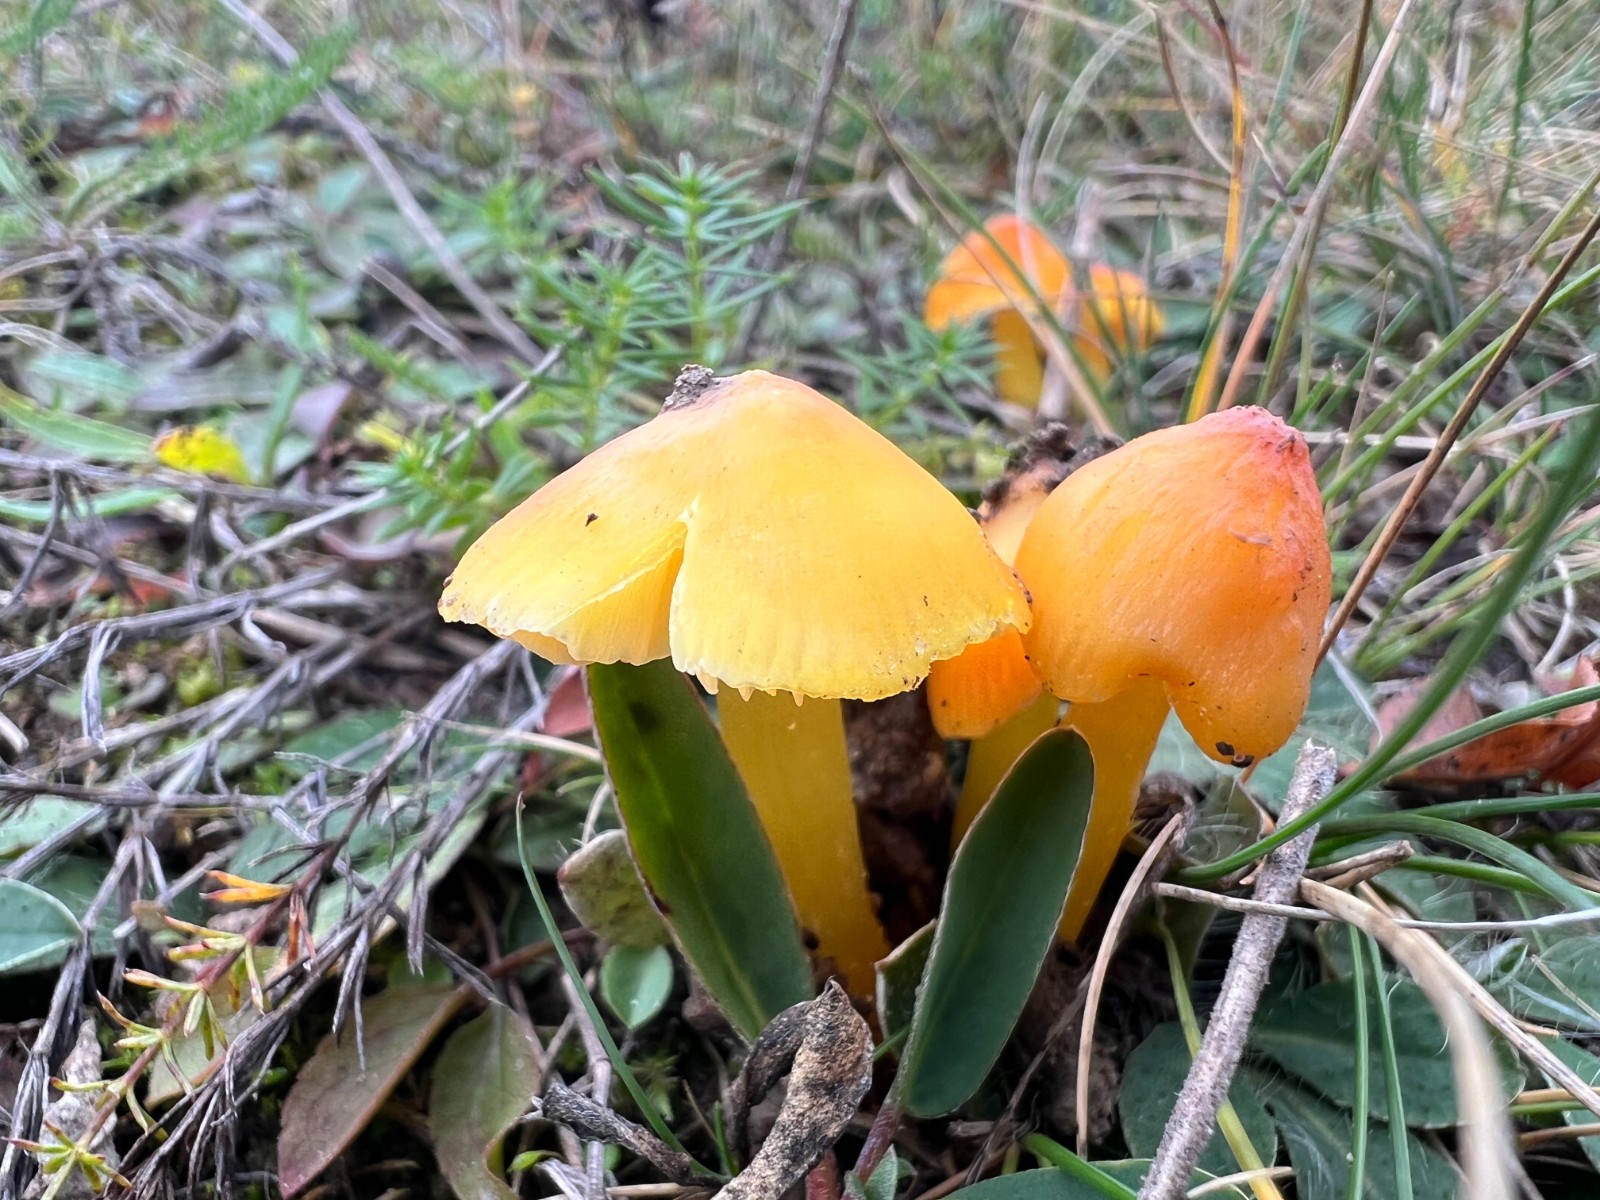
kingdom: Fungi
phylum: Basidiomycota
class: Agaricomycetes
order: Agaricales
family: Hygrophoraceae
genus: Hygrocybe
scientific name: Hygrocybe acutoconica
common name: Konrads vokshat
